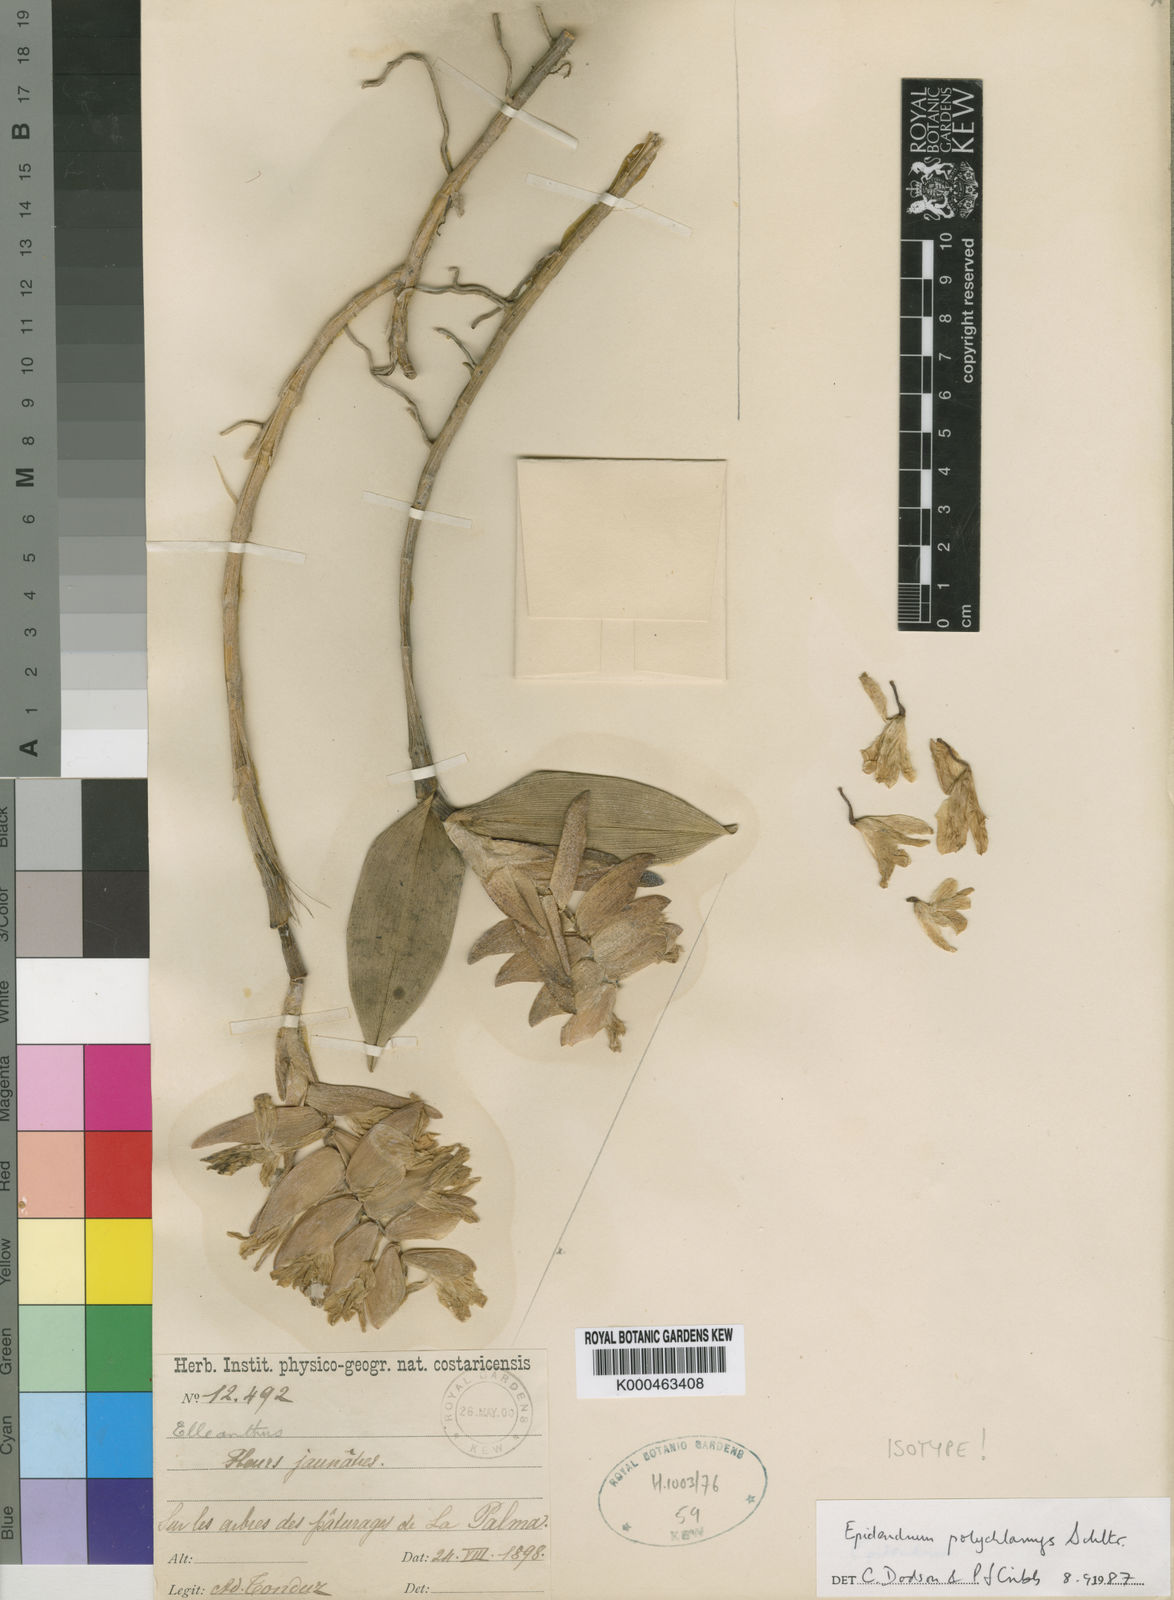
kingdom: Plantae
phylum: Tracheophyta
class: Liliopsida
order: Asparagales
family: Orchidaceae
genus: Epidendrum
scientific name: Epidendrum polychlamys
